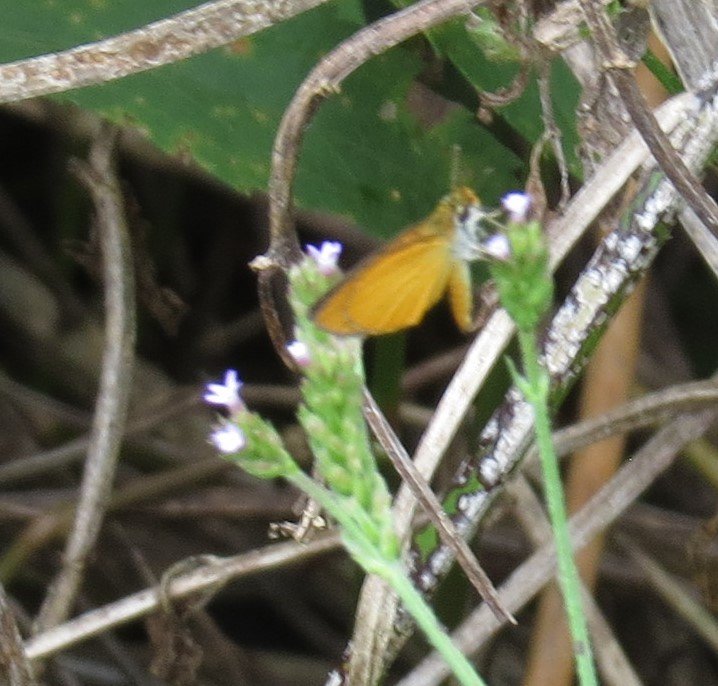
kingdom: Animalia
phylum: Arthropoda
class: Insecta
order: Lepidoptera
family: Hesperiidae
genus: Ancyloxypha
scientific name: Ancyloxypha numitor
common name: Least Skipper
